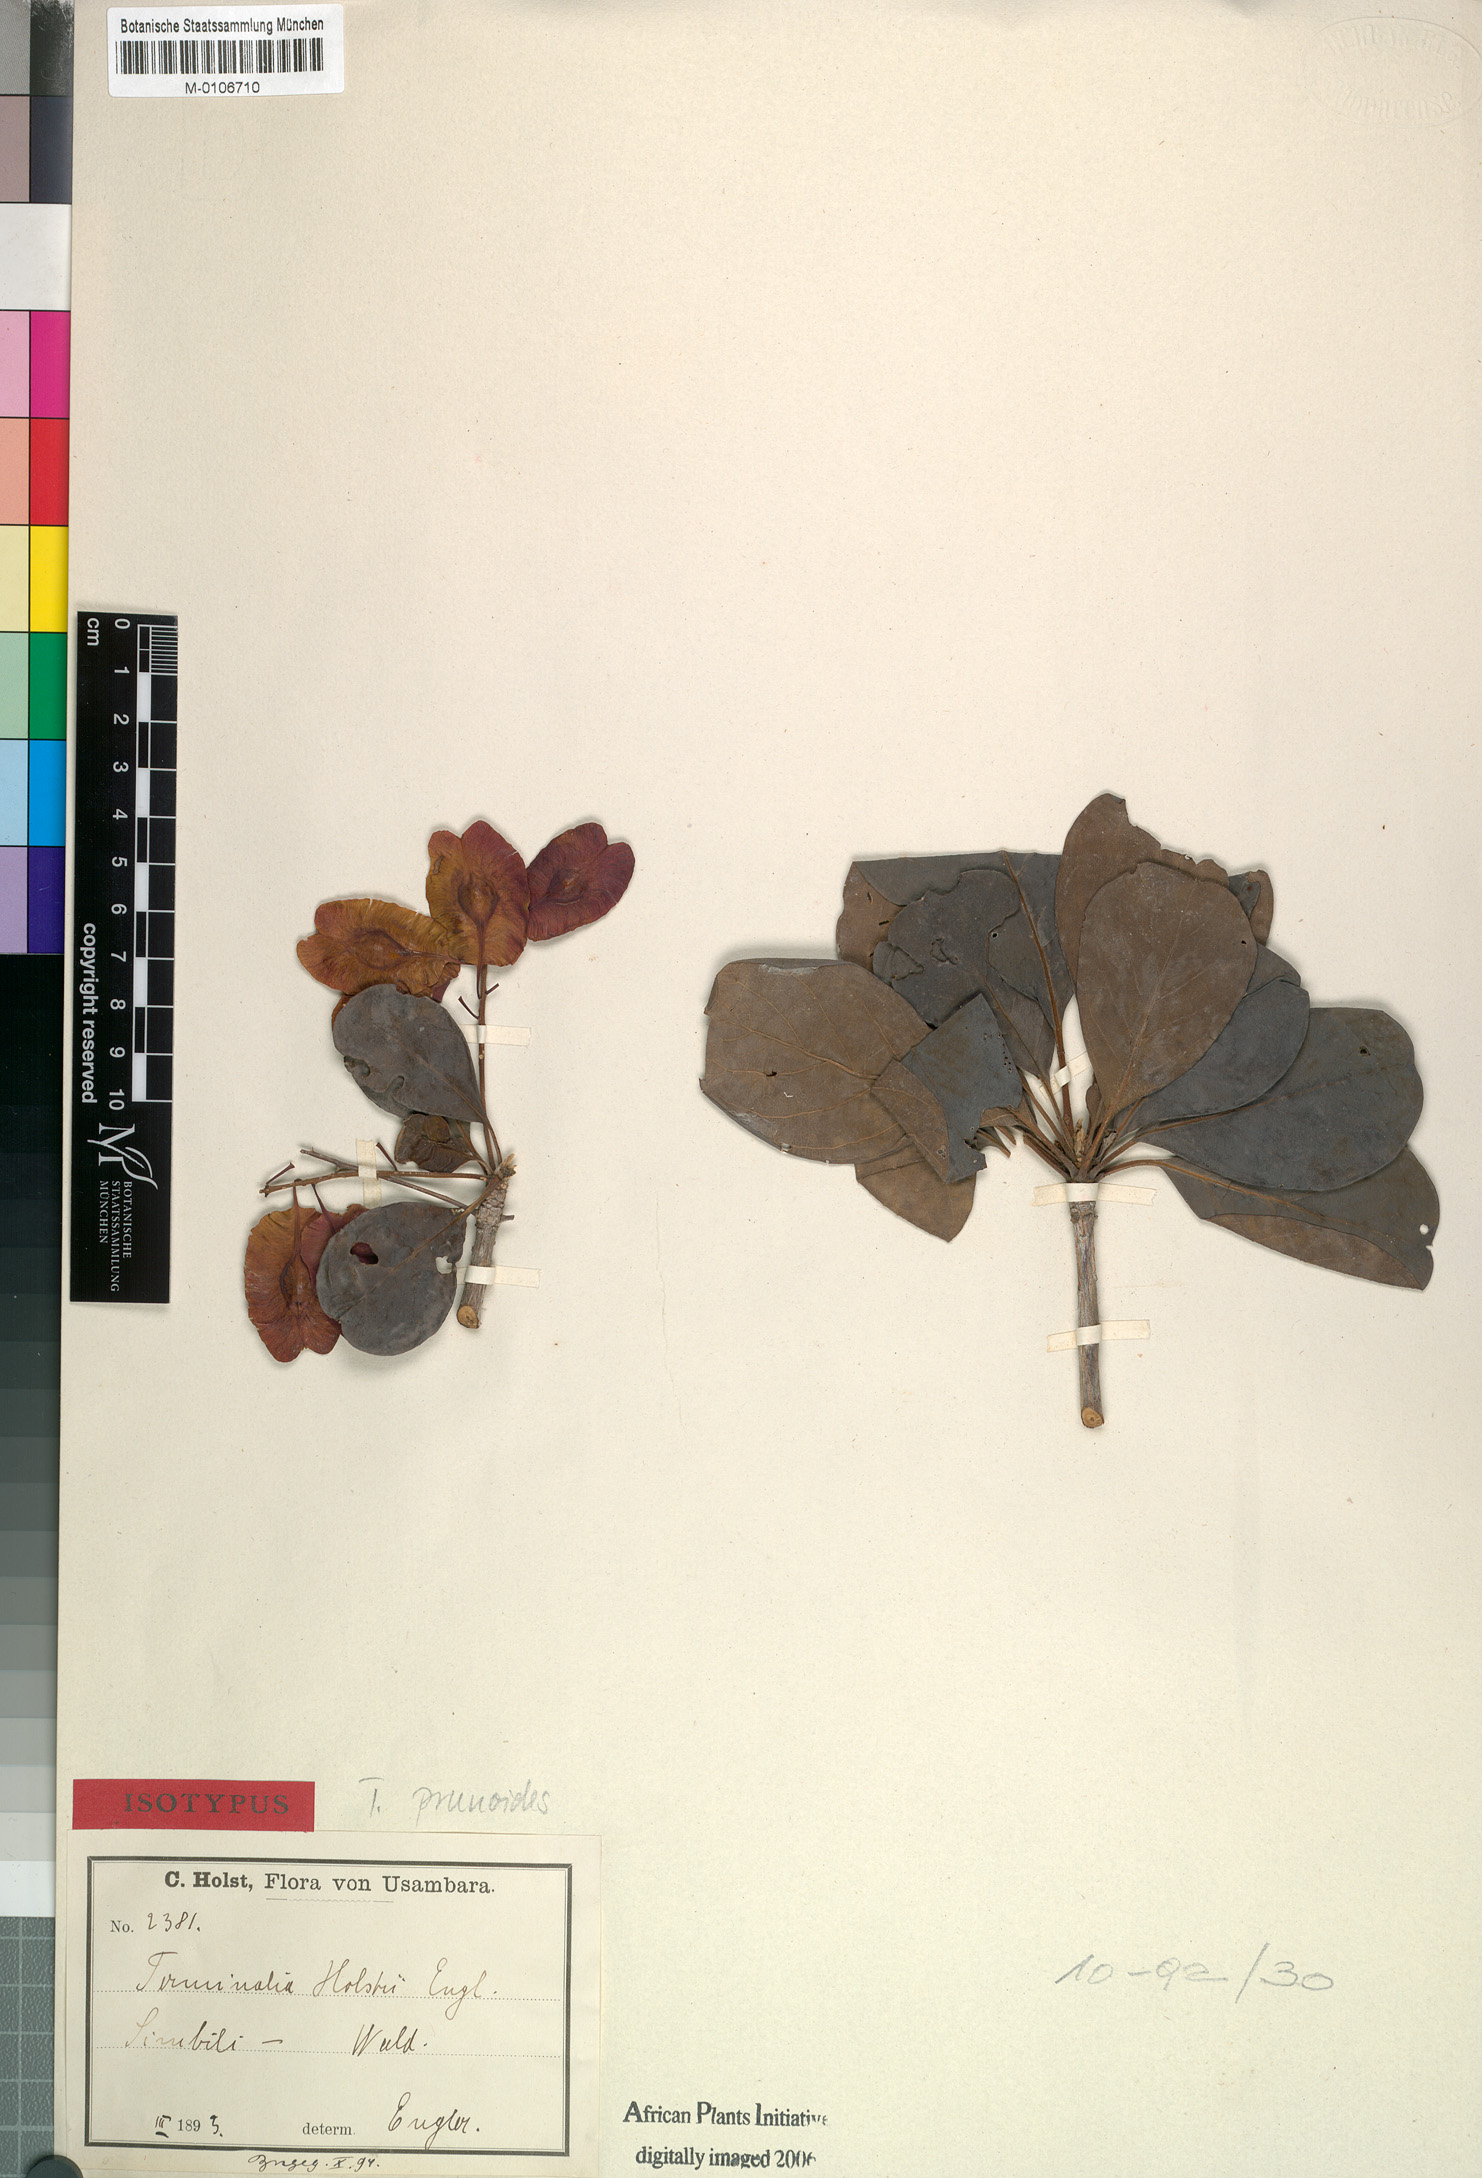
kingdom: Plantae
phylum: Tracheophyta
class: Magnoliopsida
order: Myrtales
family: Combretaceae
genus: Terminalia
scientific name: Terminalia prunioides
